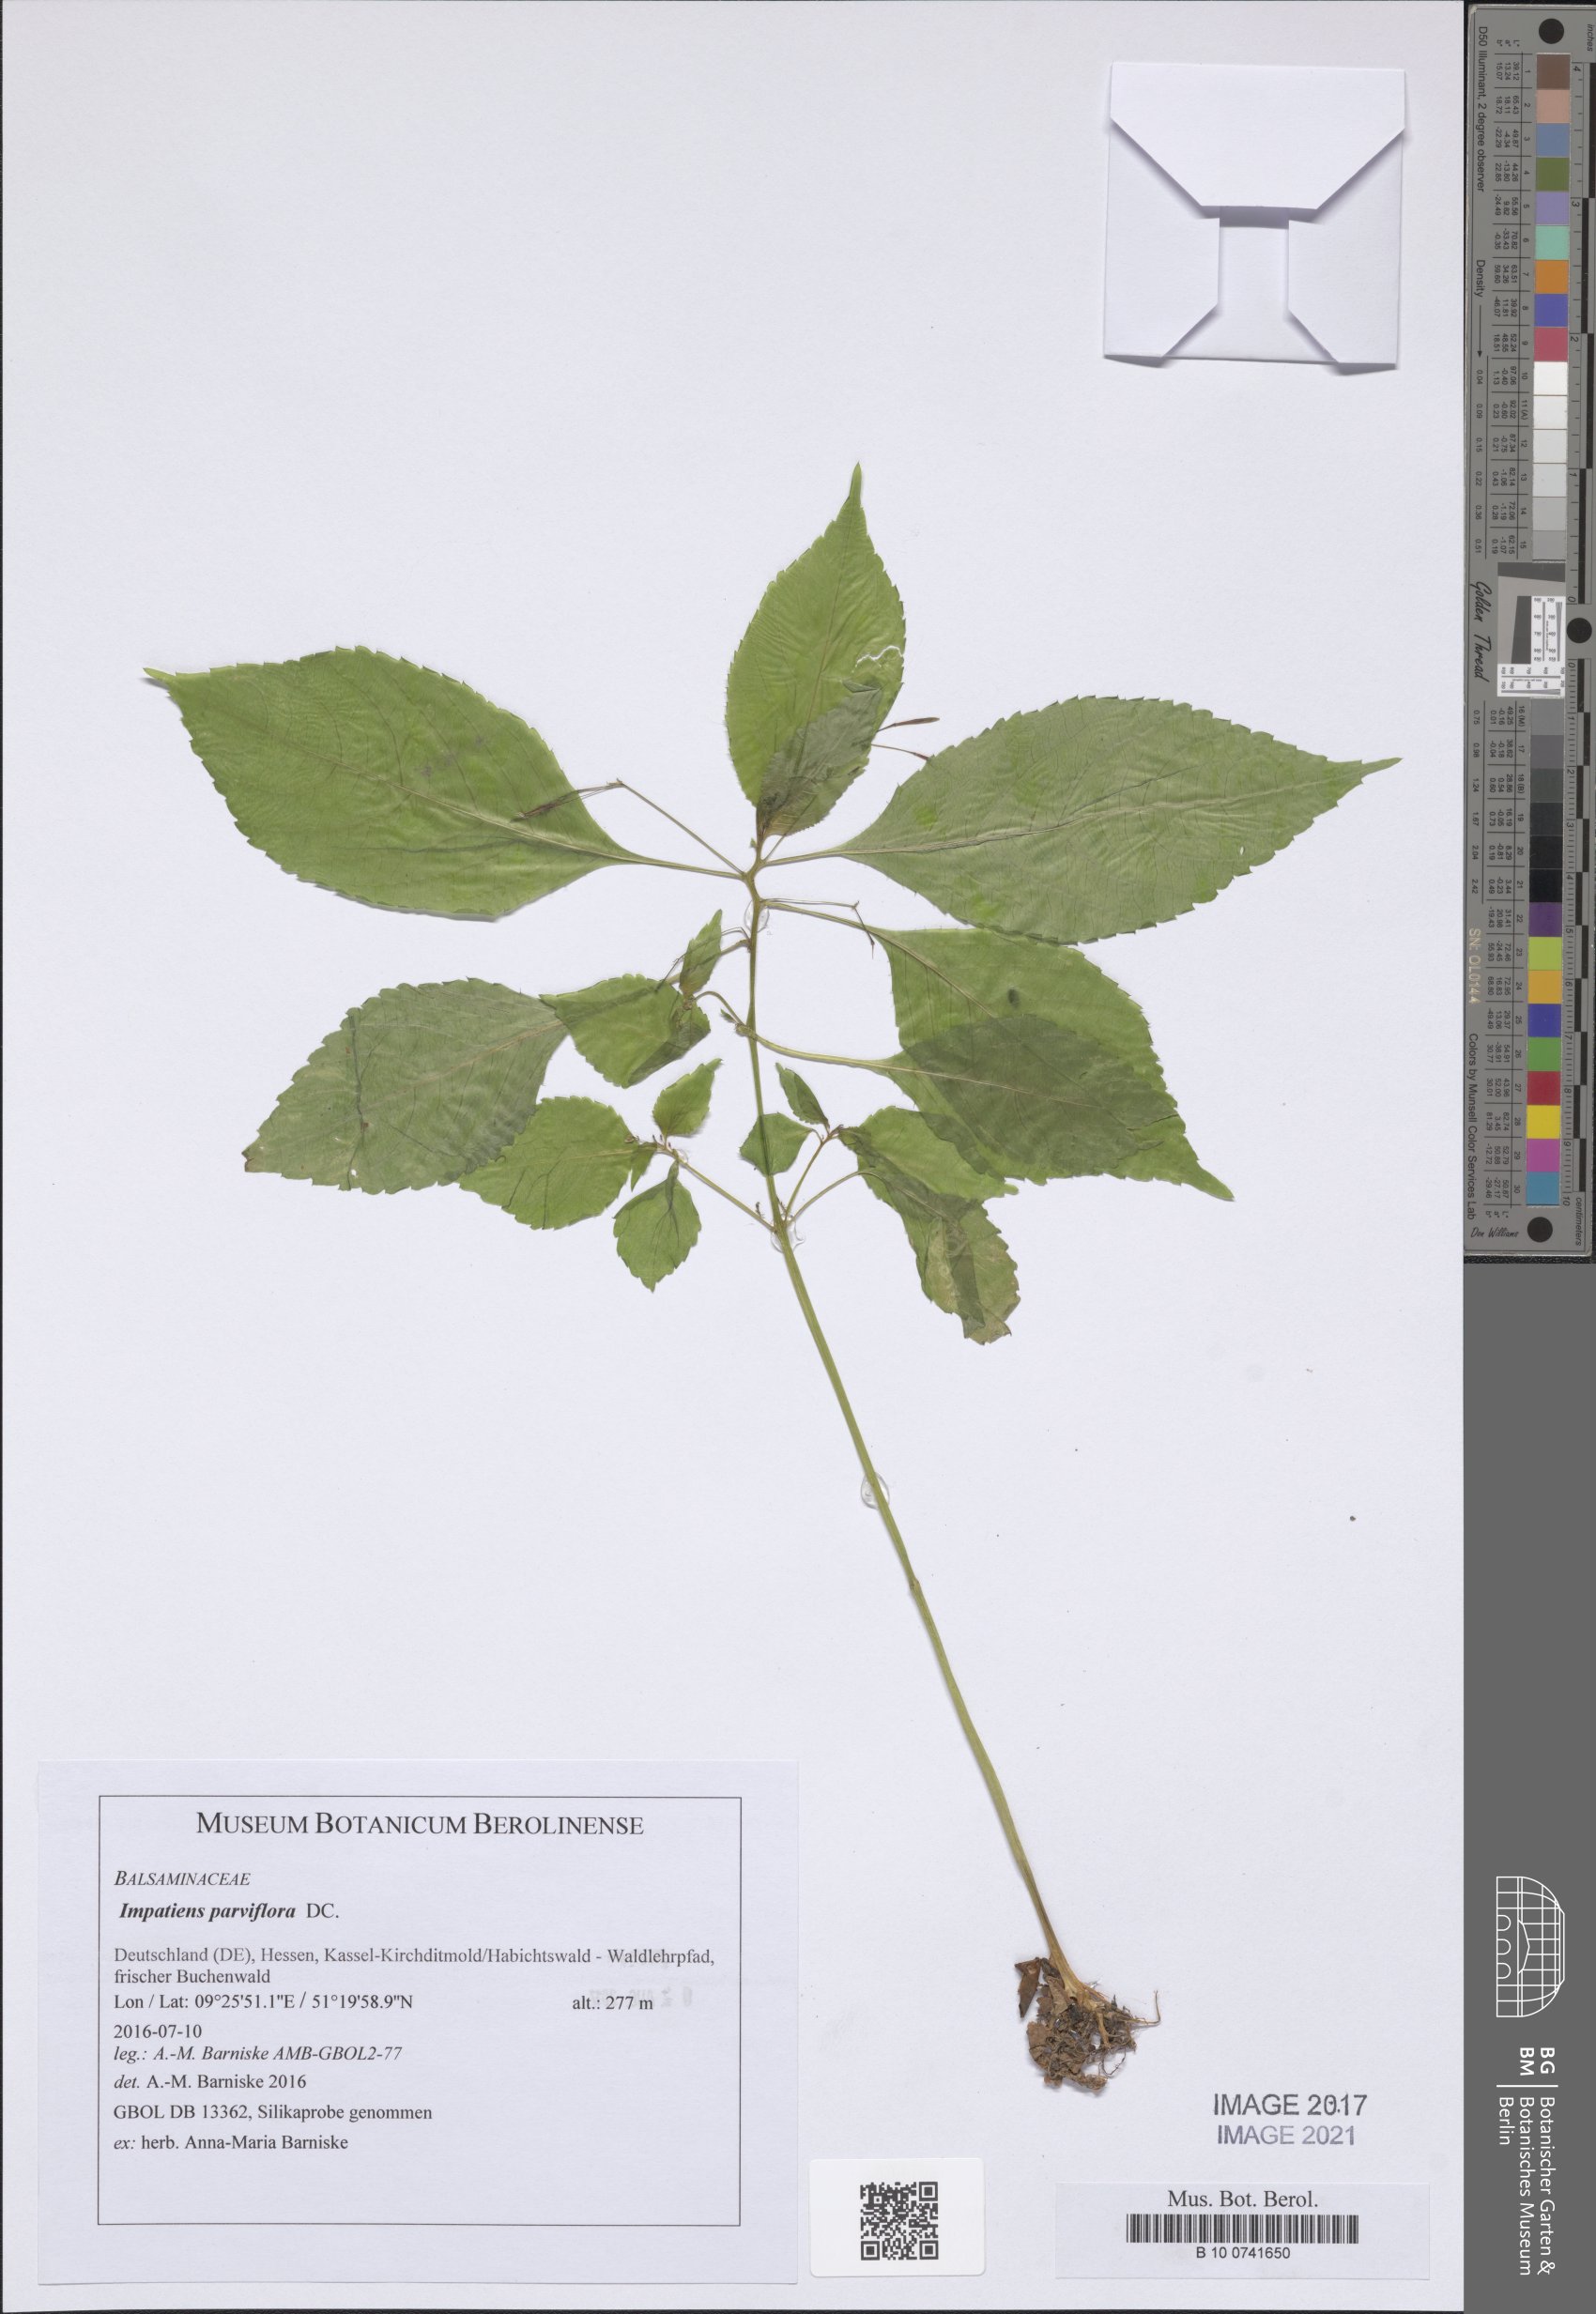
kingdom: Plantae
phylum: Tracheophyta
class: Magnoliopsida
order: Ericales
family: Balsaminaceae
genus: Impatiens
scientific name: Impatiens parviflora
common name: Small balsam
